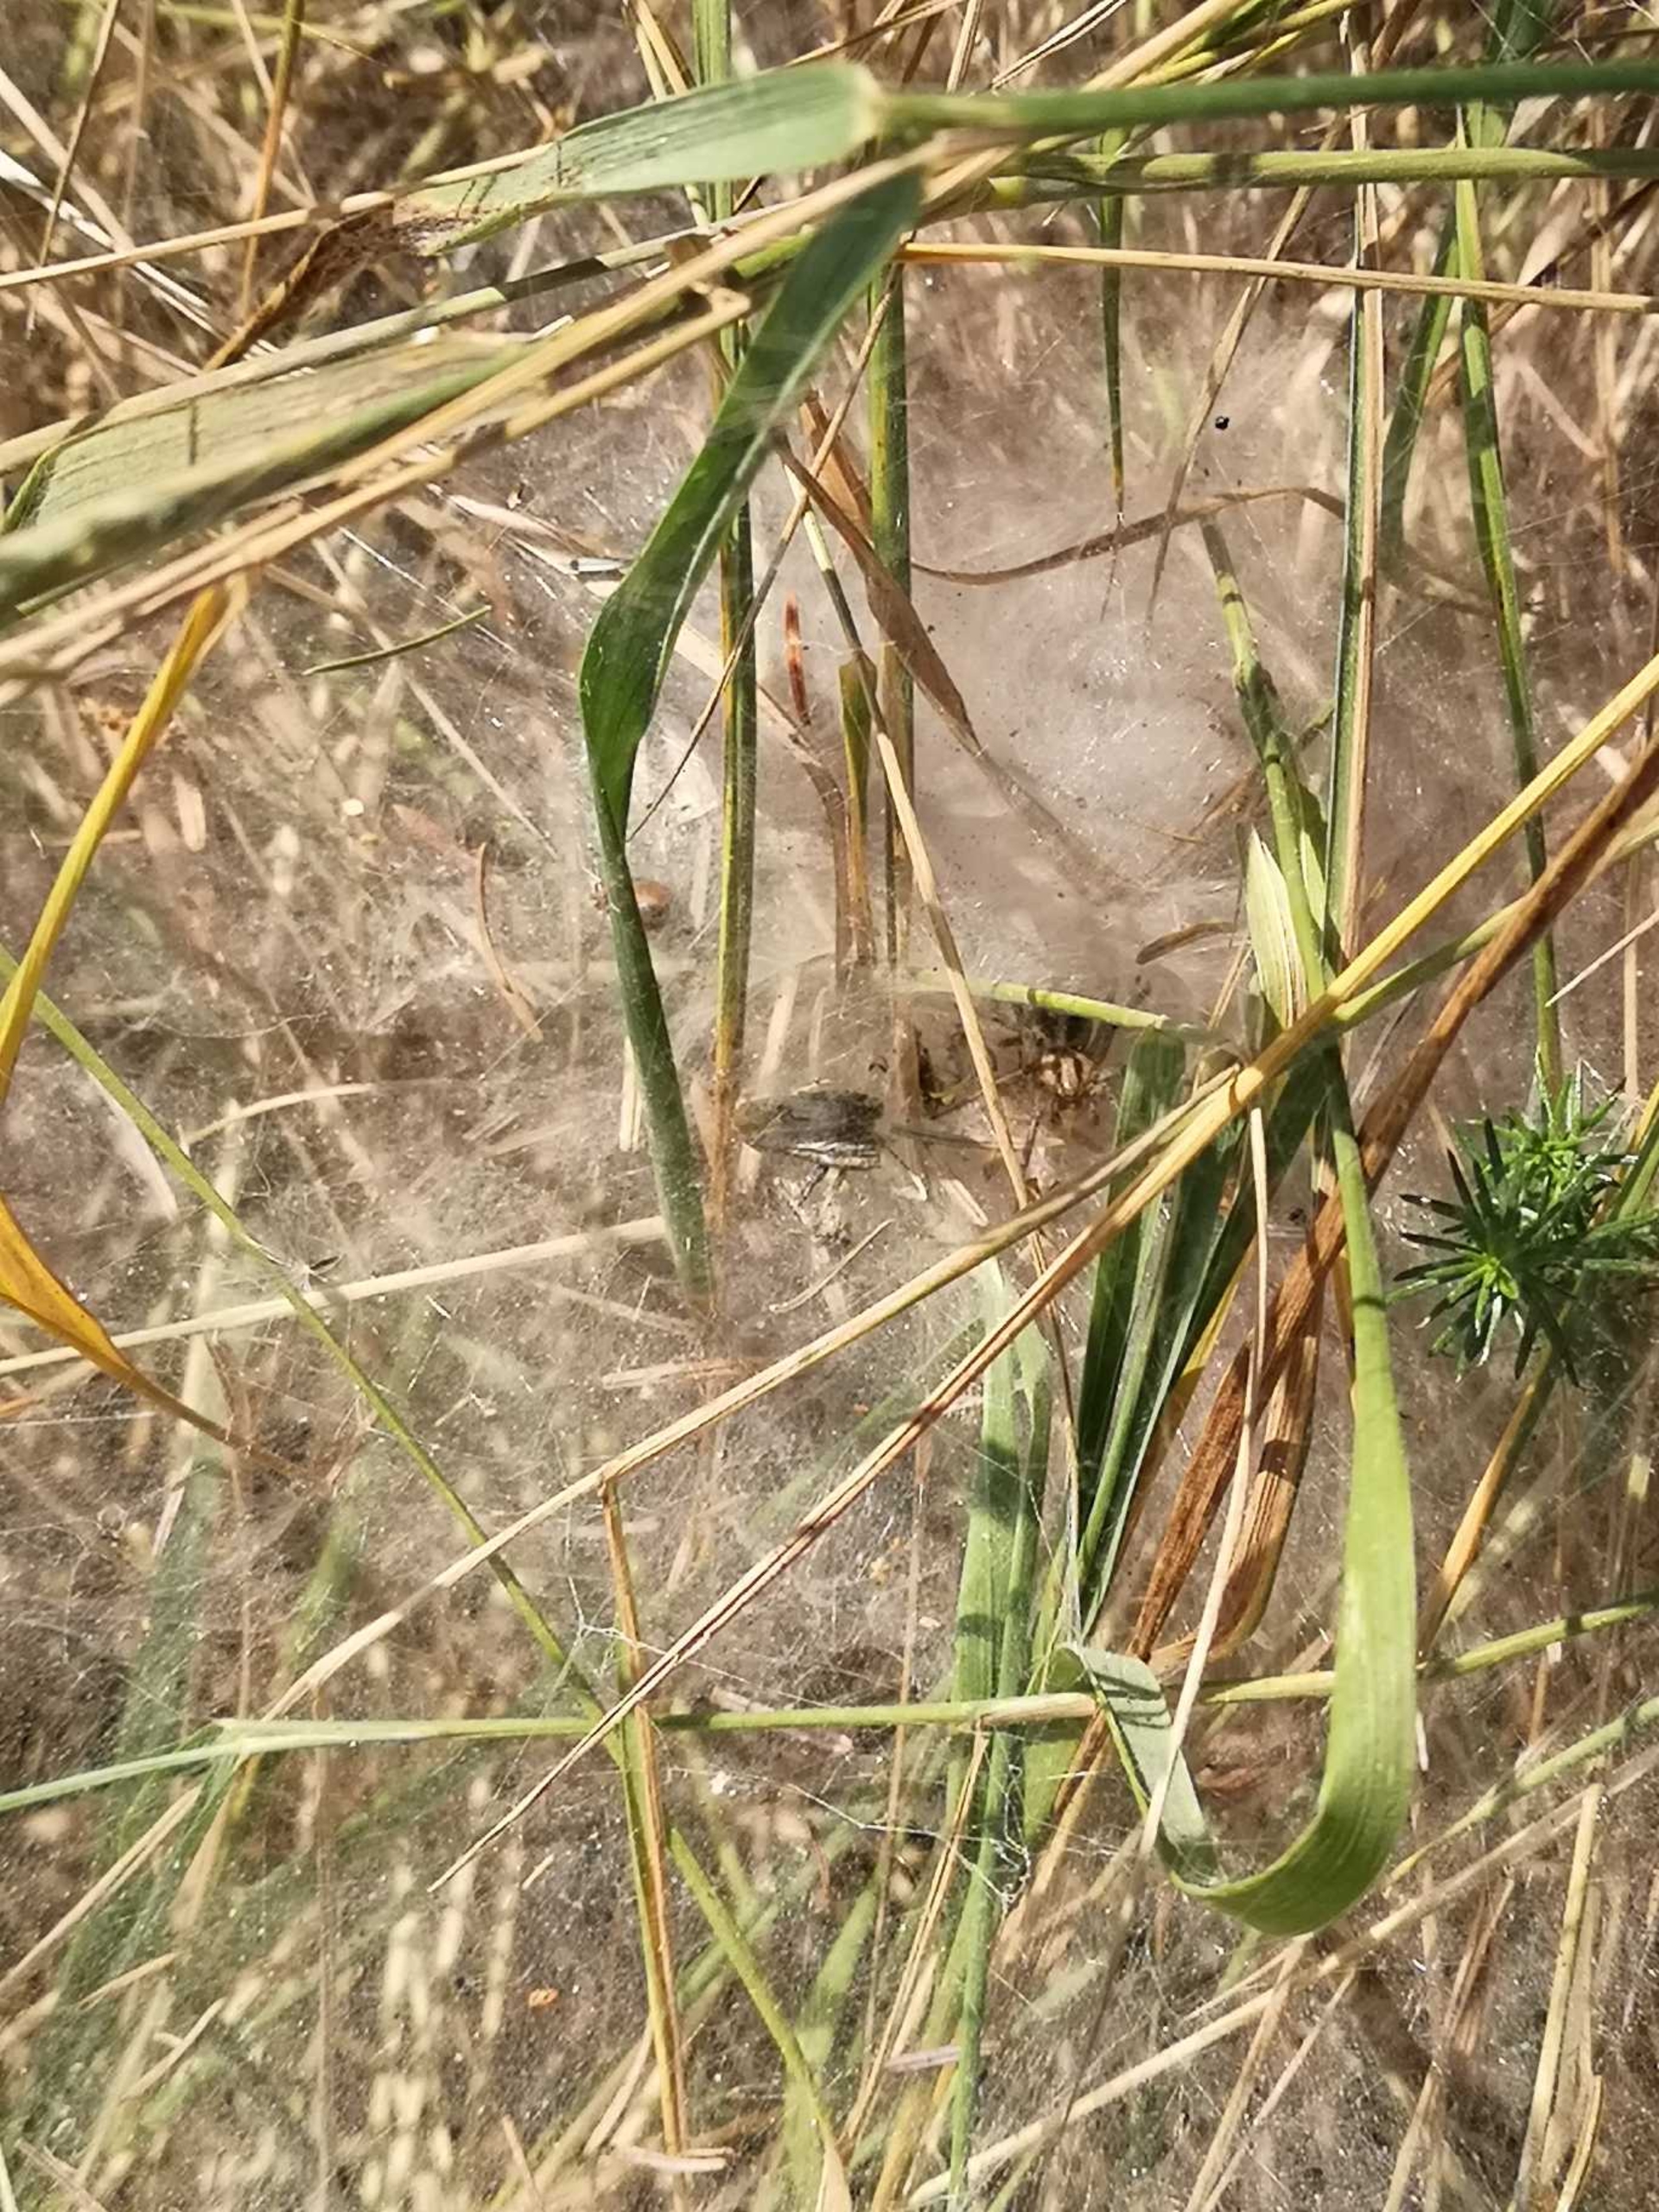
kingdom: Animalia
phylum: Arthropoda
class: Arachnida
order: Araneae
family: Agelenidae
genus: Agelena
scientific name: Agelena labyrinthica
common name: Labyrintedderkop
